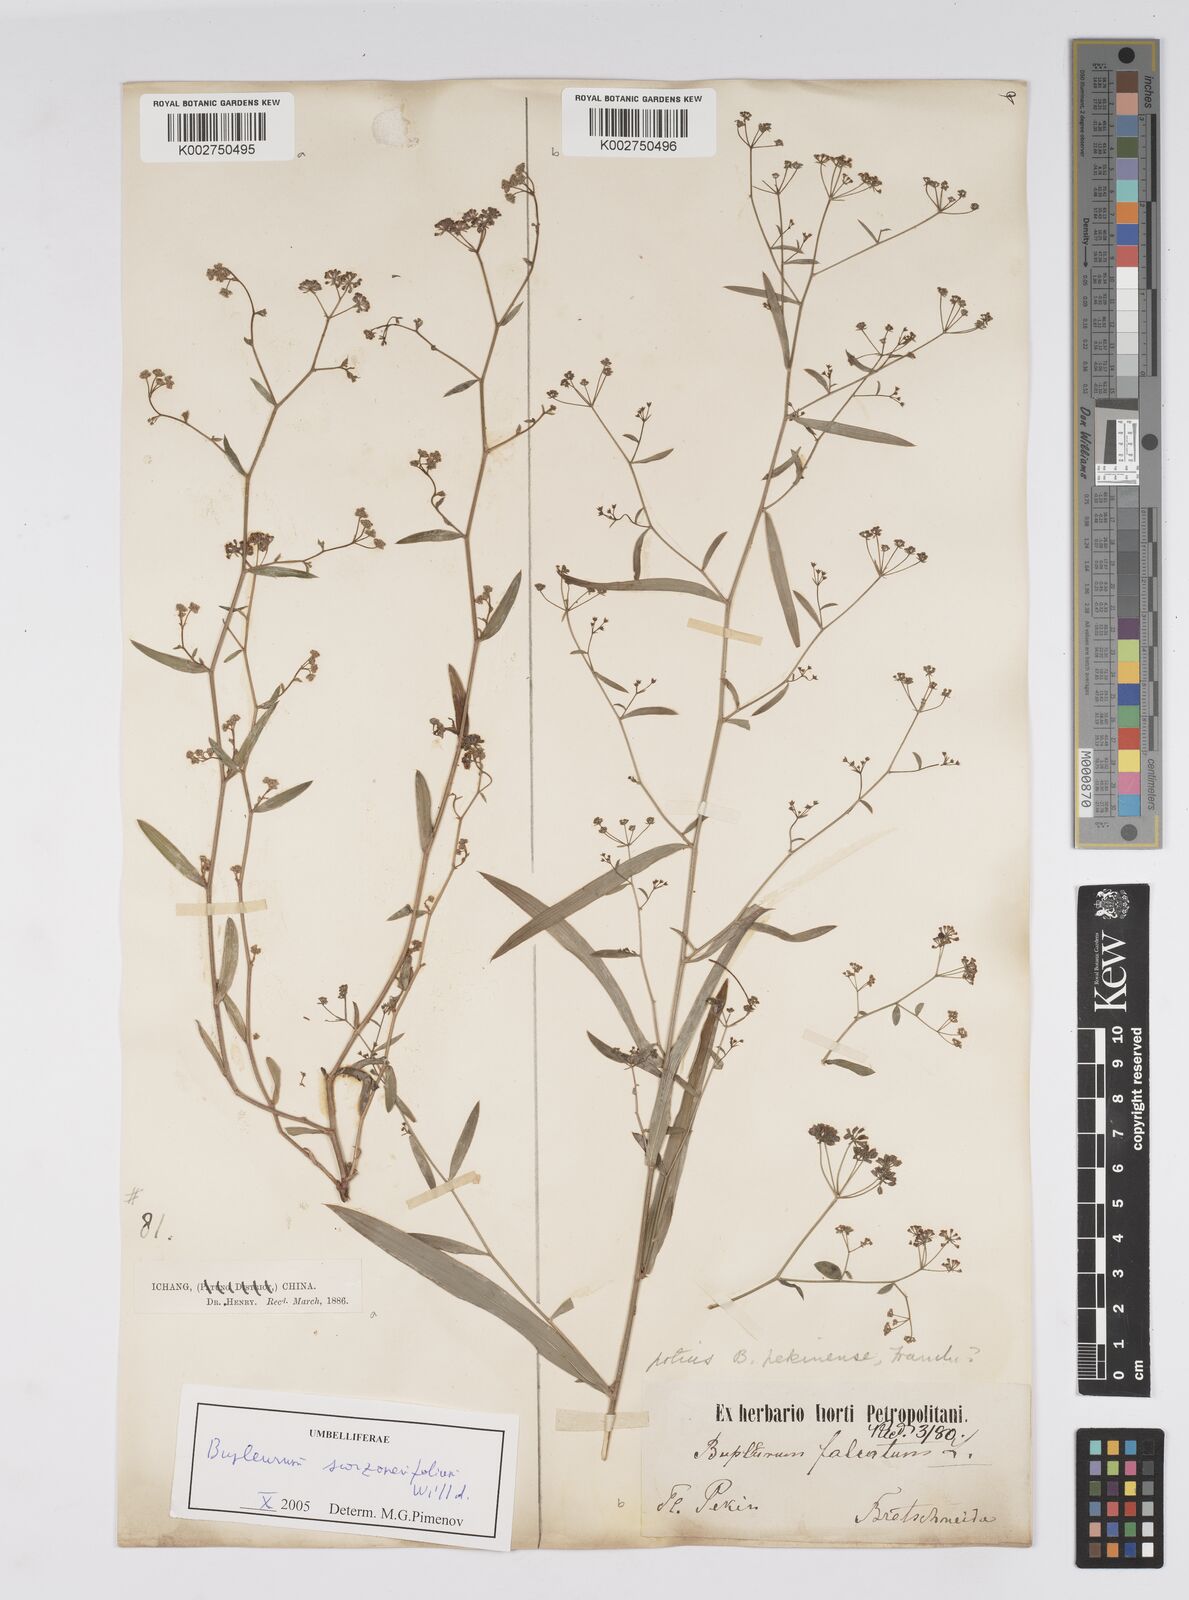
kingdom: Plantae
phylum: Tracheophyta
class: Magnoliopsida
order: Apiales
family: Apiaceae
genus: Bupleurum
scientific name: Bupleurum krylovianum
